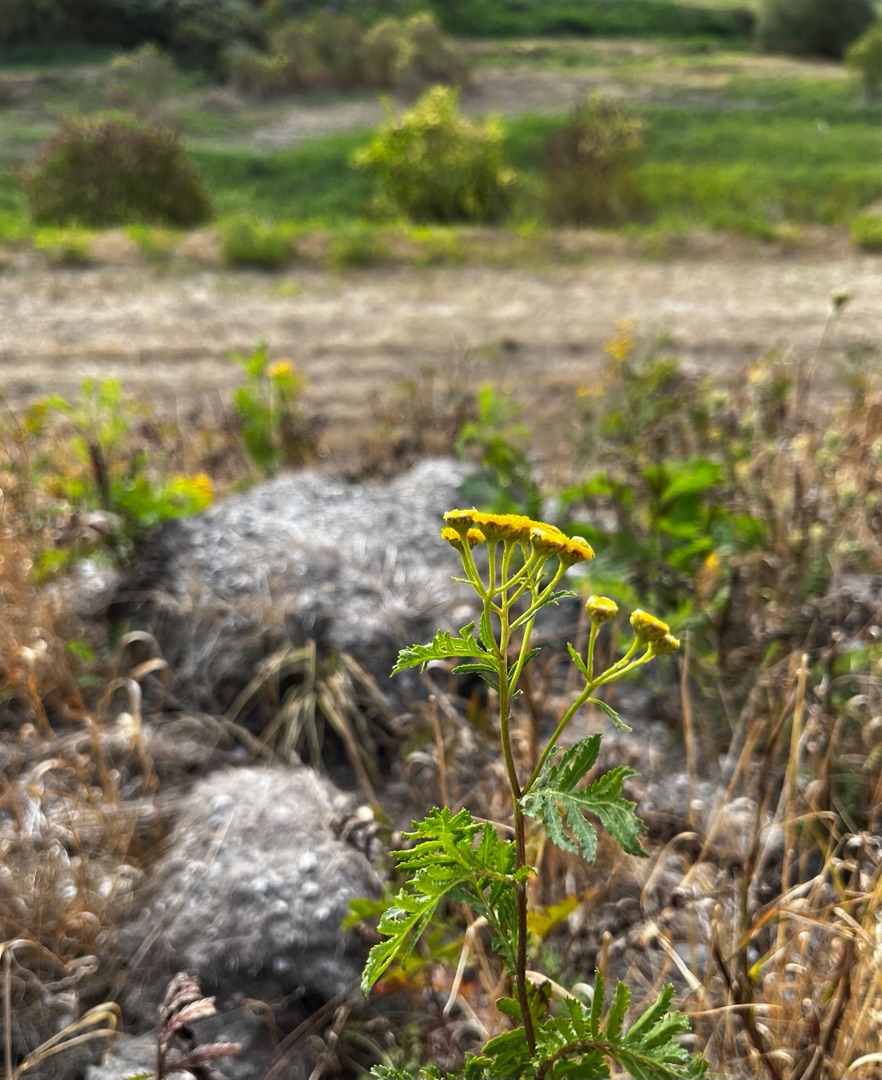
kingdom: Plantae
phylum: Tracheophyta
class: Magnoliopsida
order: Asterales
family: Asteraceae
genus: Tanacetum
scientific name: Tanacetum vulgare
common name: Rejnfan
